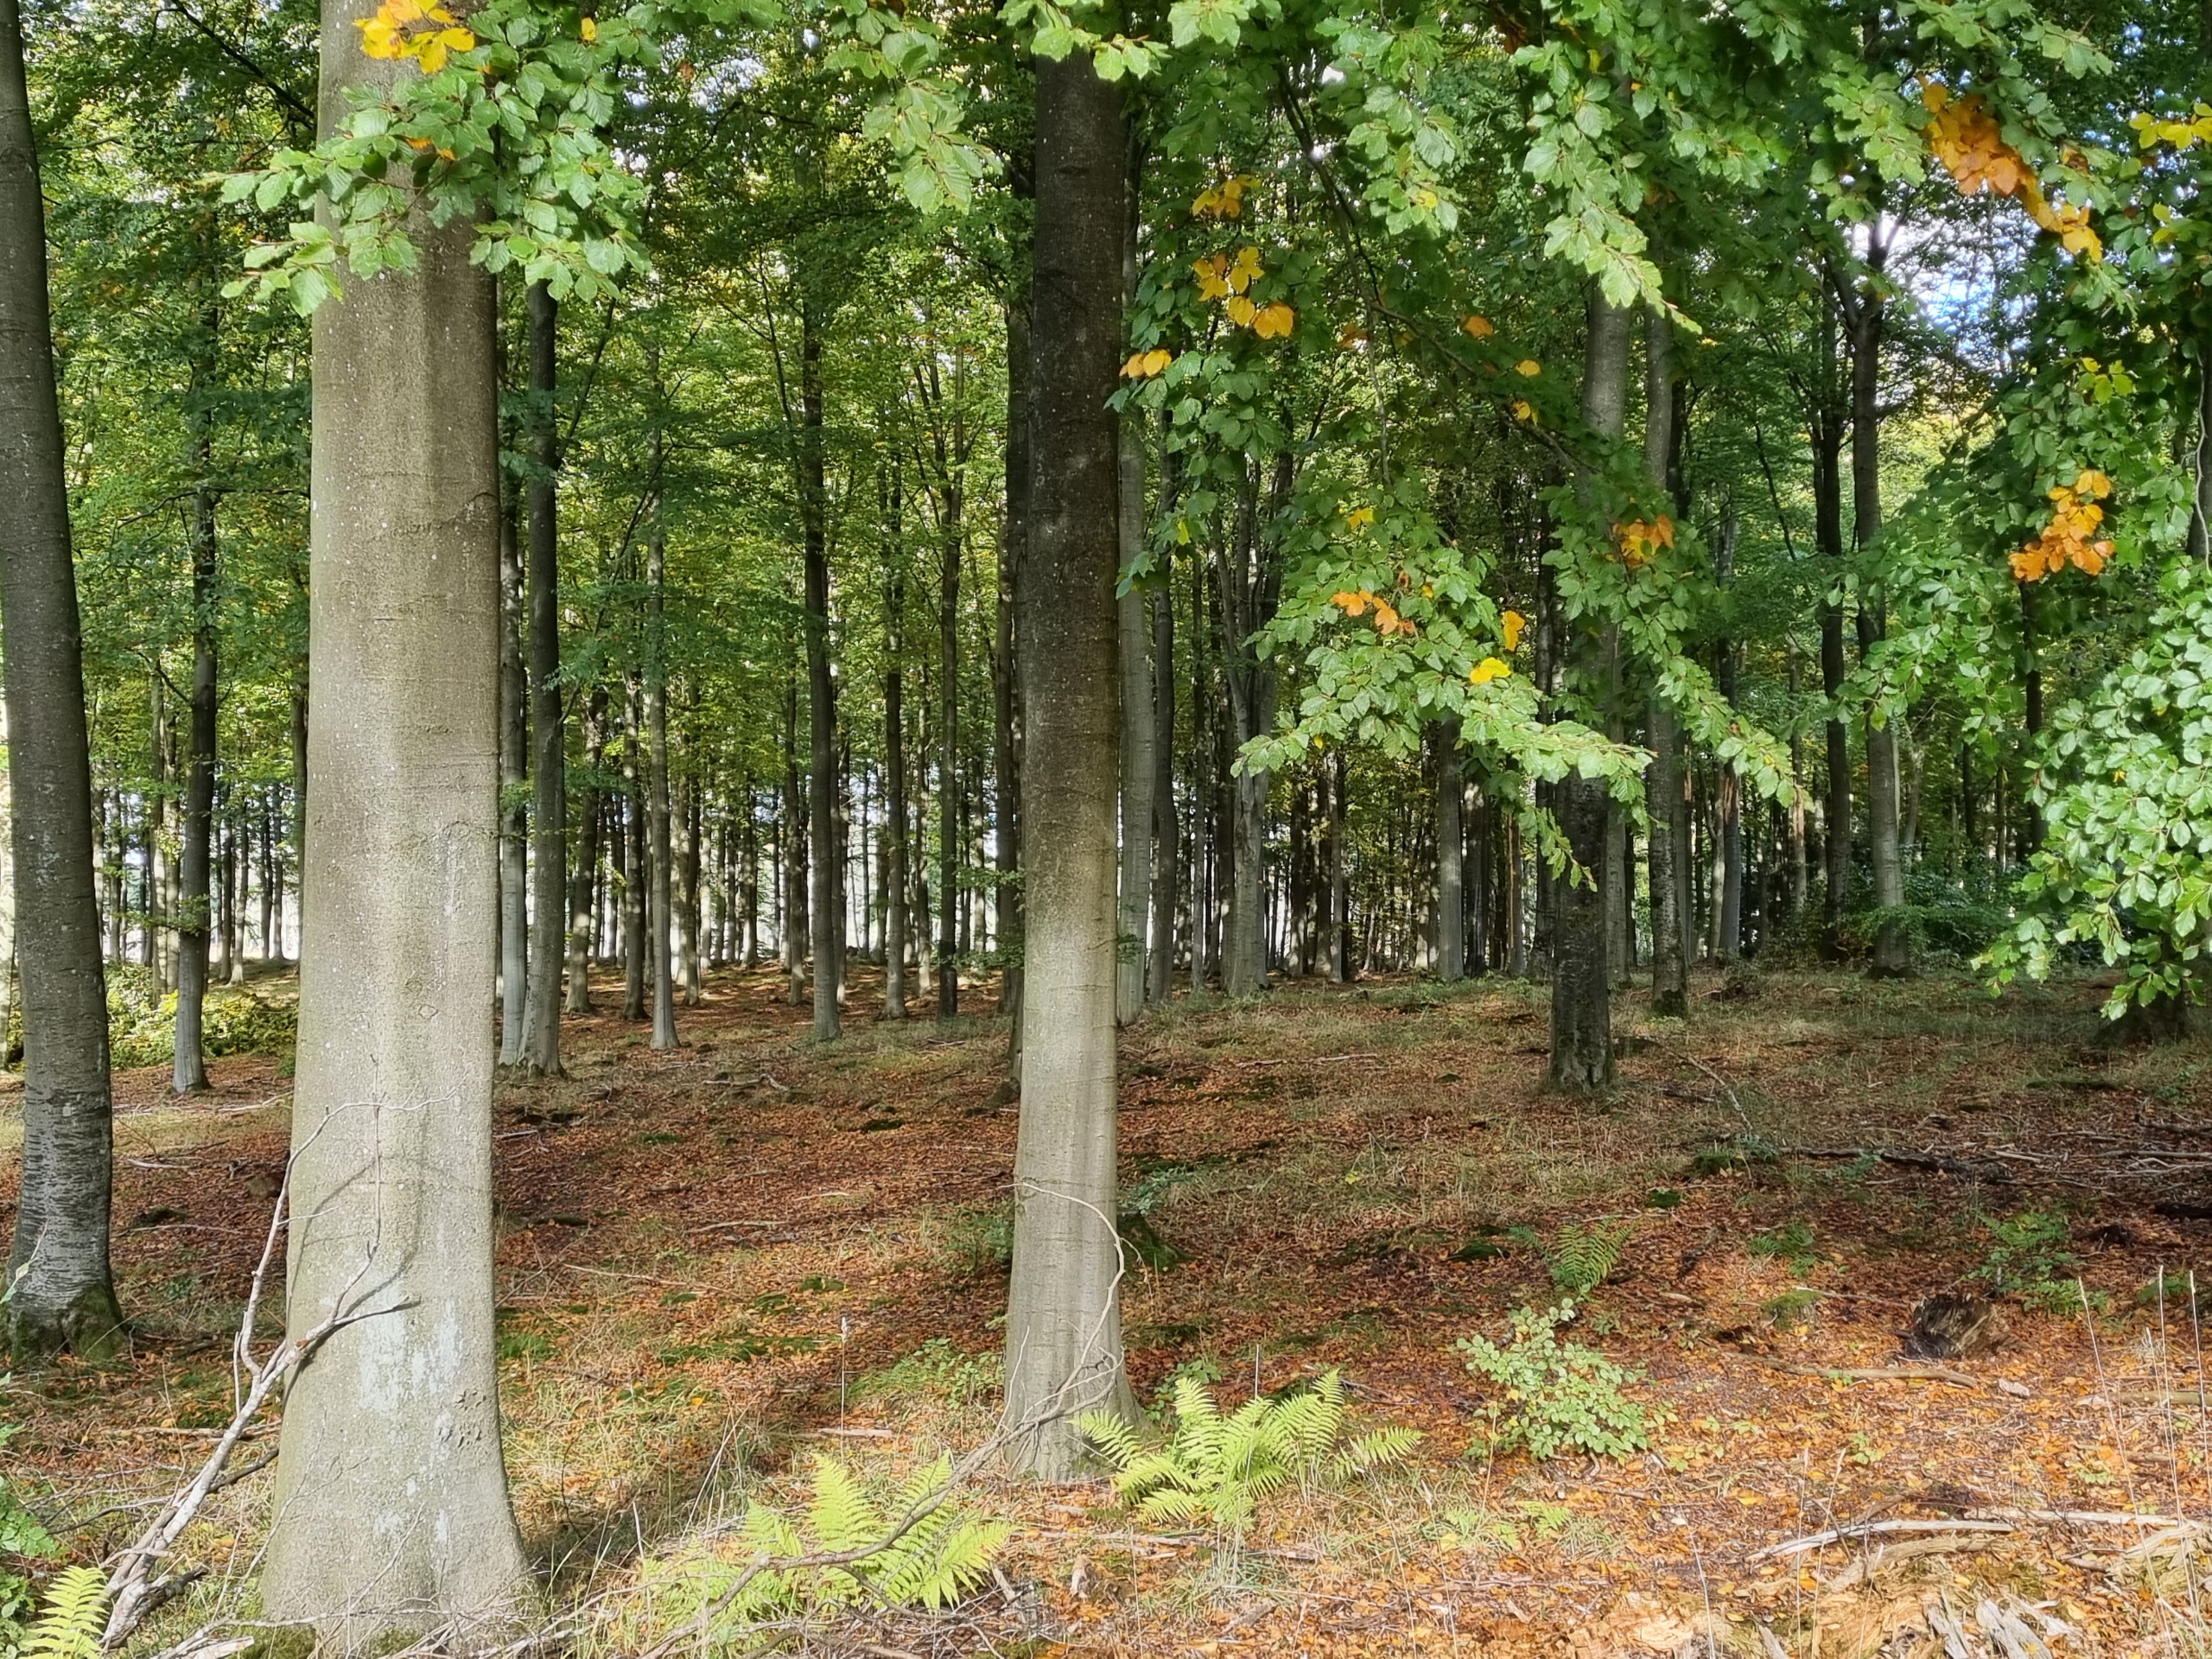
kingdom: Plantae
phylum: Tracheophyta
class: Magnoliopsida
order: Fagales
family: Fagaceae
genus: Fagus
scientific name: Fagus sylvatica
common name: Bøg
